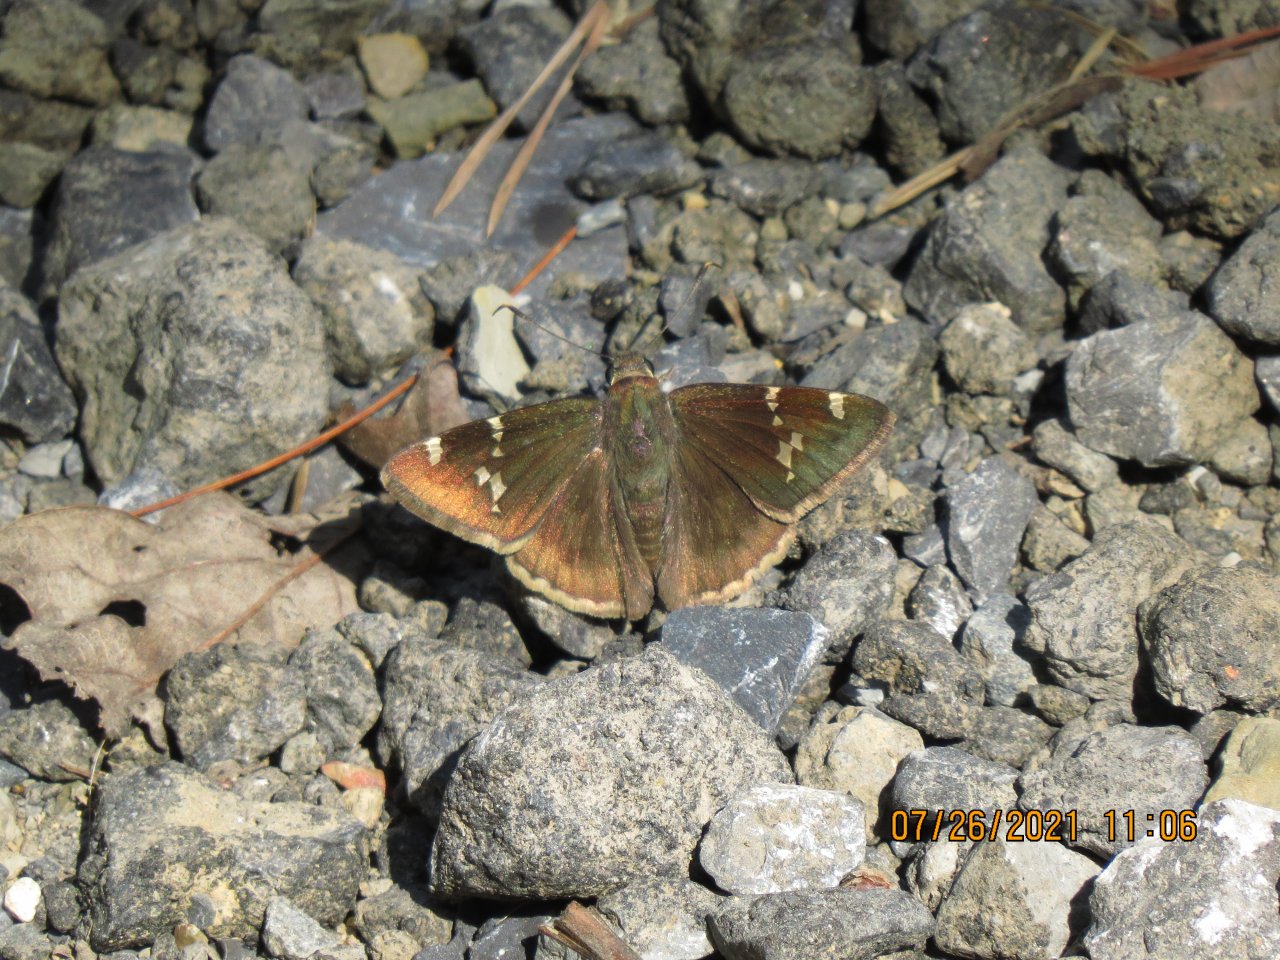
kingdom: Animalia
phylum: Arthropoda
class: Insecta
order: Lepidoptera
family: Hesperiidae
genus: Autochton
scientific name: Autochton
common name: Southern Cloudywing
